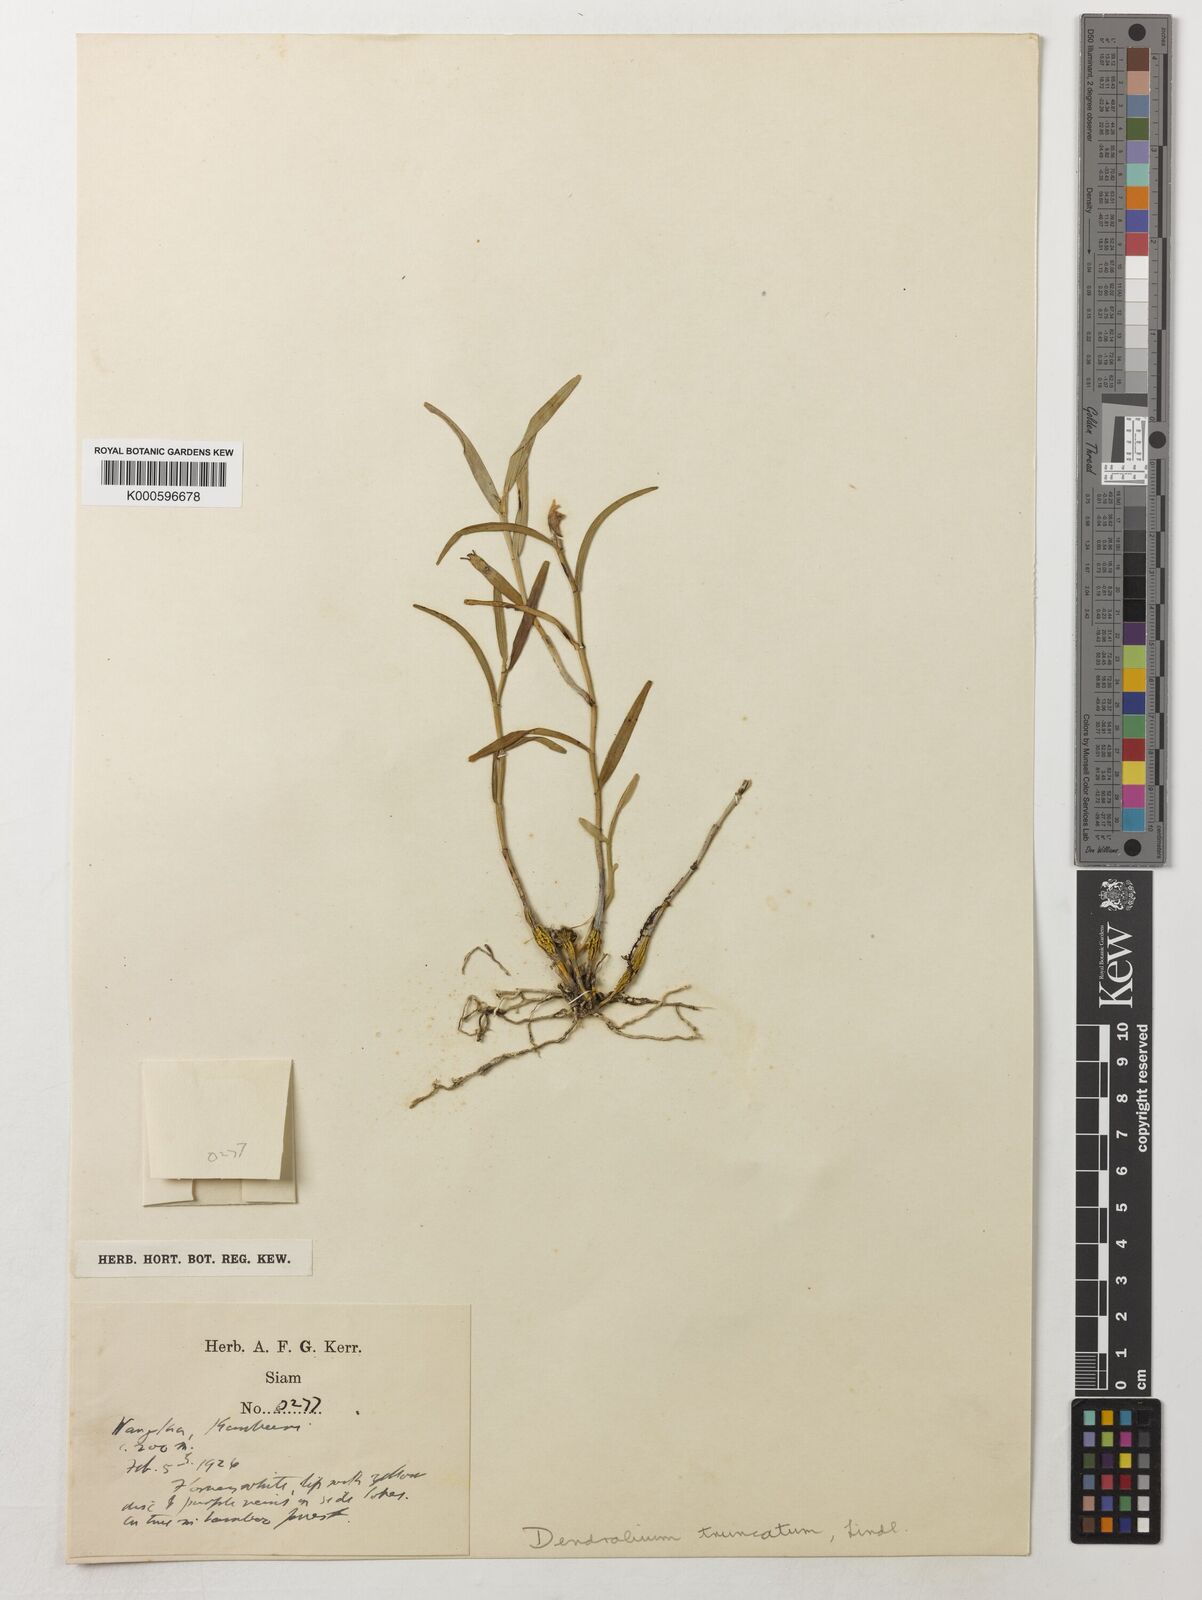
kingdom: Plantae
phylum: Tracheophyta
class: Liliopsida
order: Asparagales
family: Orchidaceae
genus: Dendrobium
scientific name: Dendrobium truncatum
